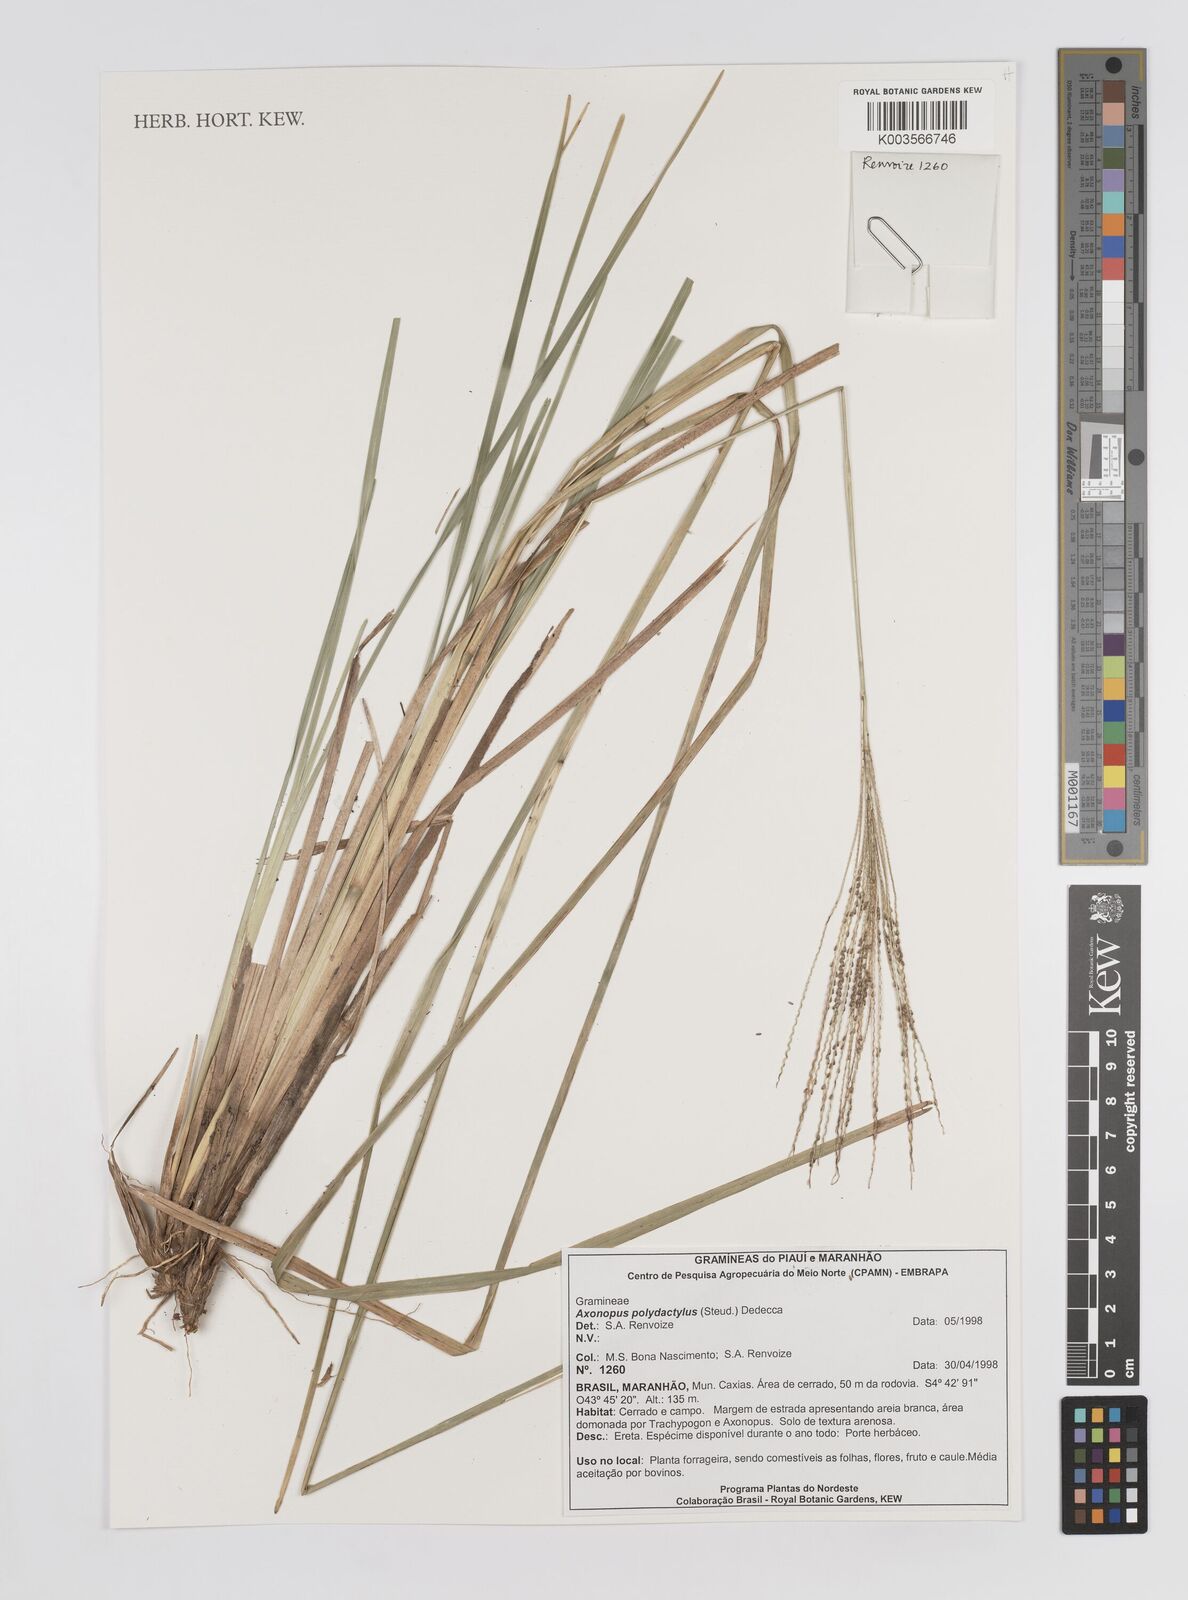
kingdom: Plantae
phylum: Tracheophyta
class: Liliopsida
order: Poales
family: Poaceae
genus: Axonopus
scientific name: Axonopus polydactylus
